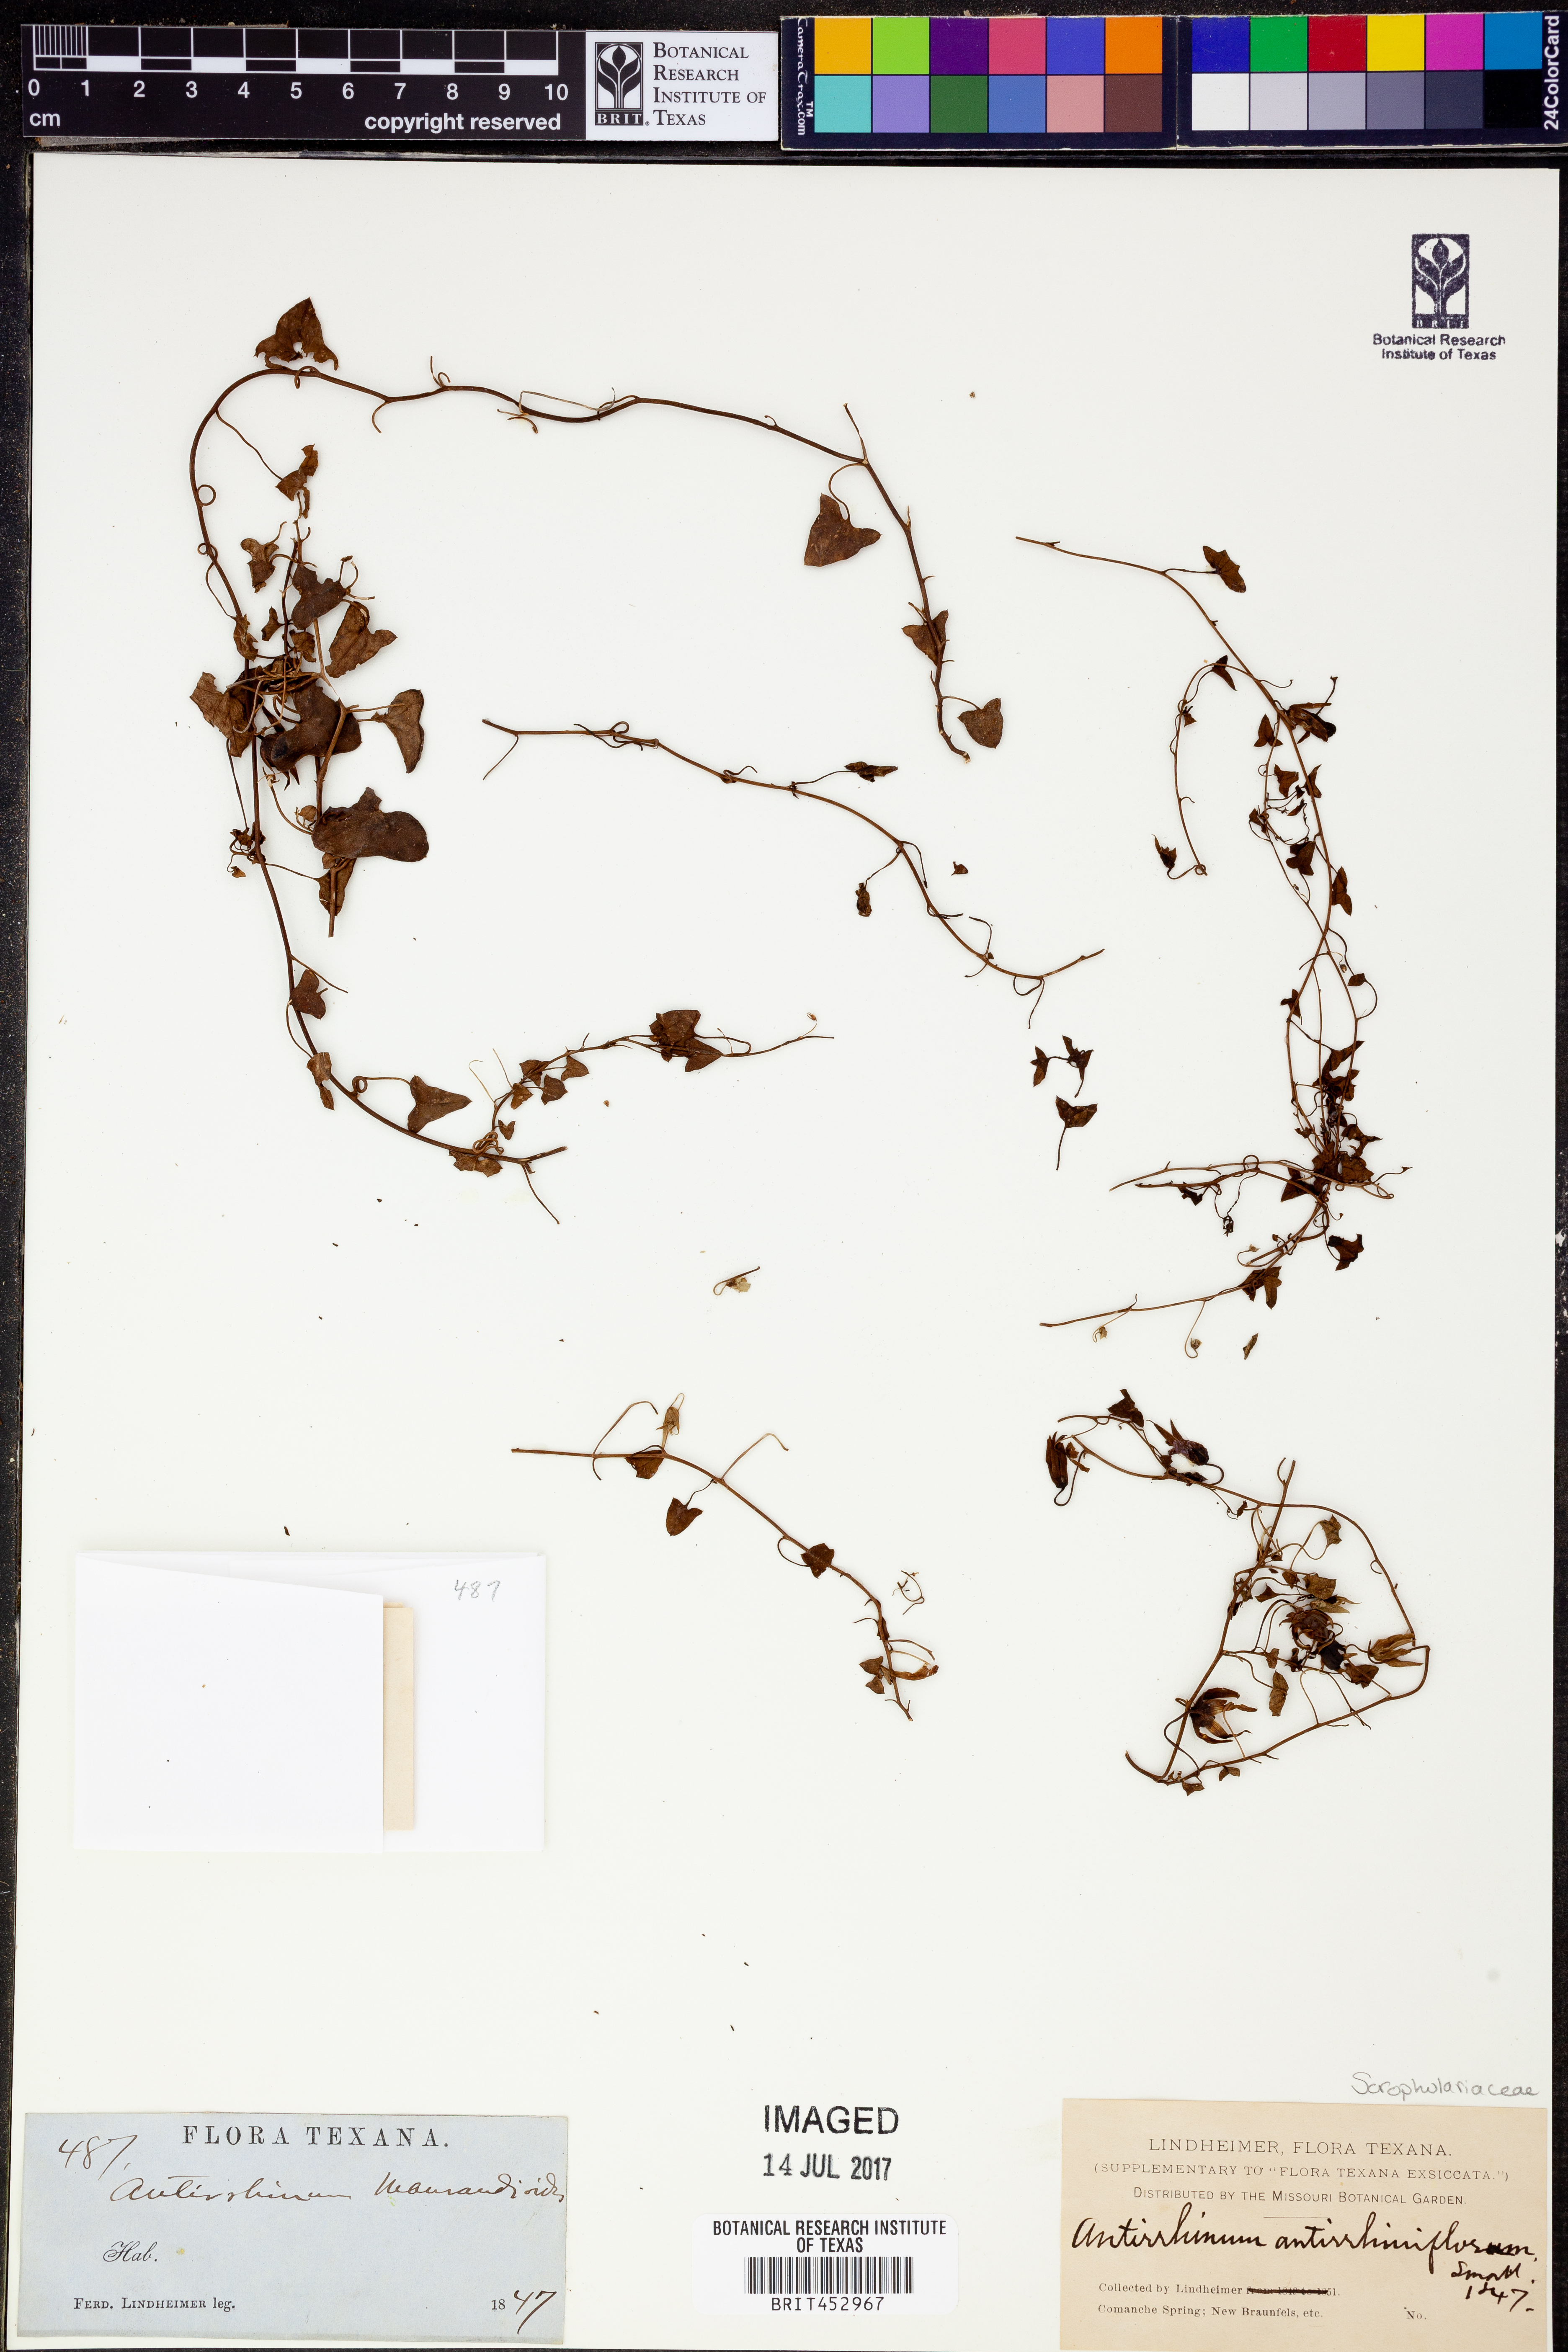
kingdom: Plantae
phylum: Tracheophyta
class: Magnoliopsida
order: Lamiales
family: Plantaginaceae
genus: Maurandella
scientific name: Maurandella antirrhiniflora
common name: Violet twining-snapdragon
